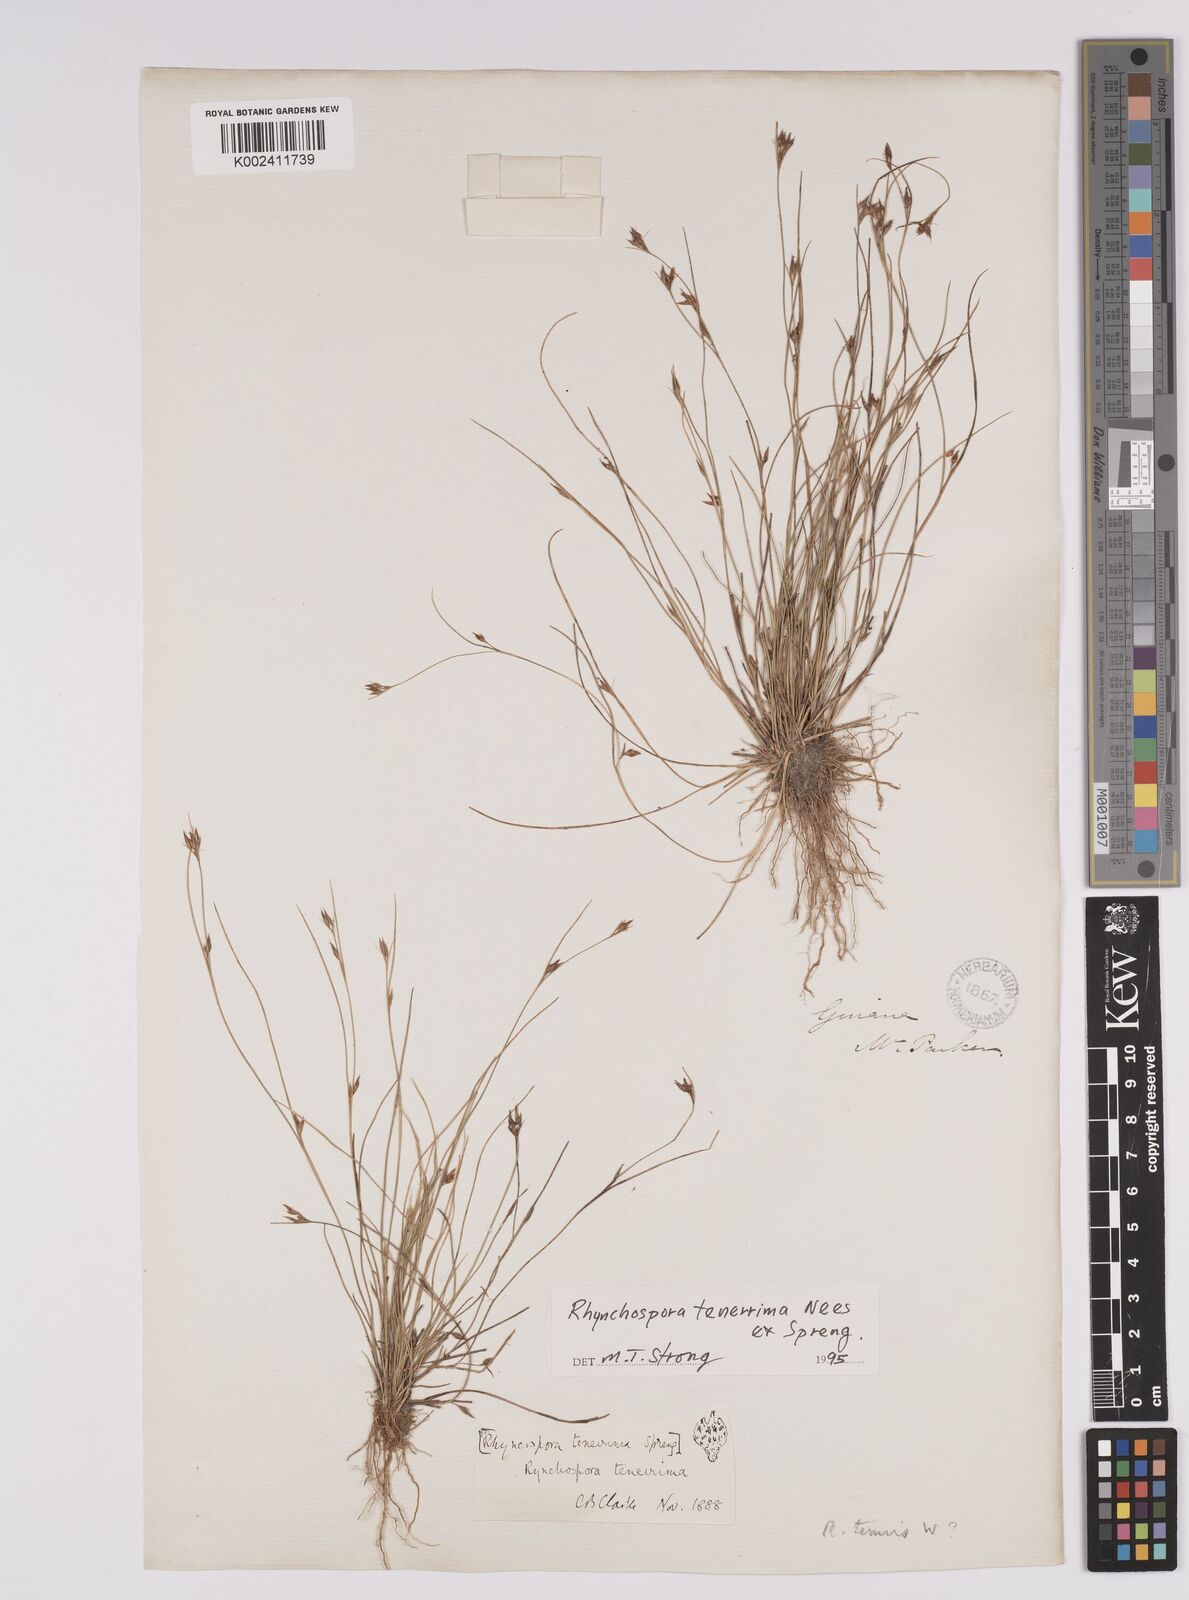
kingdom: Plantae
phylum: Tracheophyta
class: Liliopsida
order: Poales
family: Cyperaceae
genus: Rhynchospora
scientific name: Rhynchospora tenerrima
